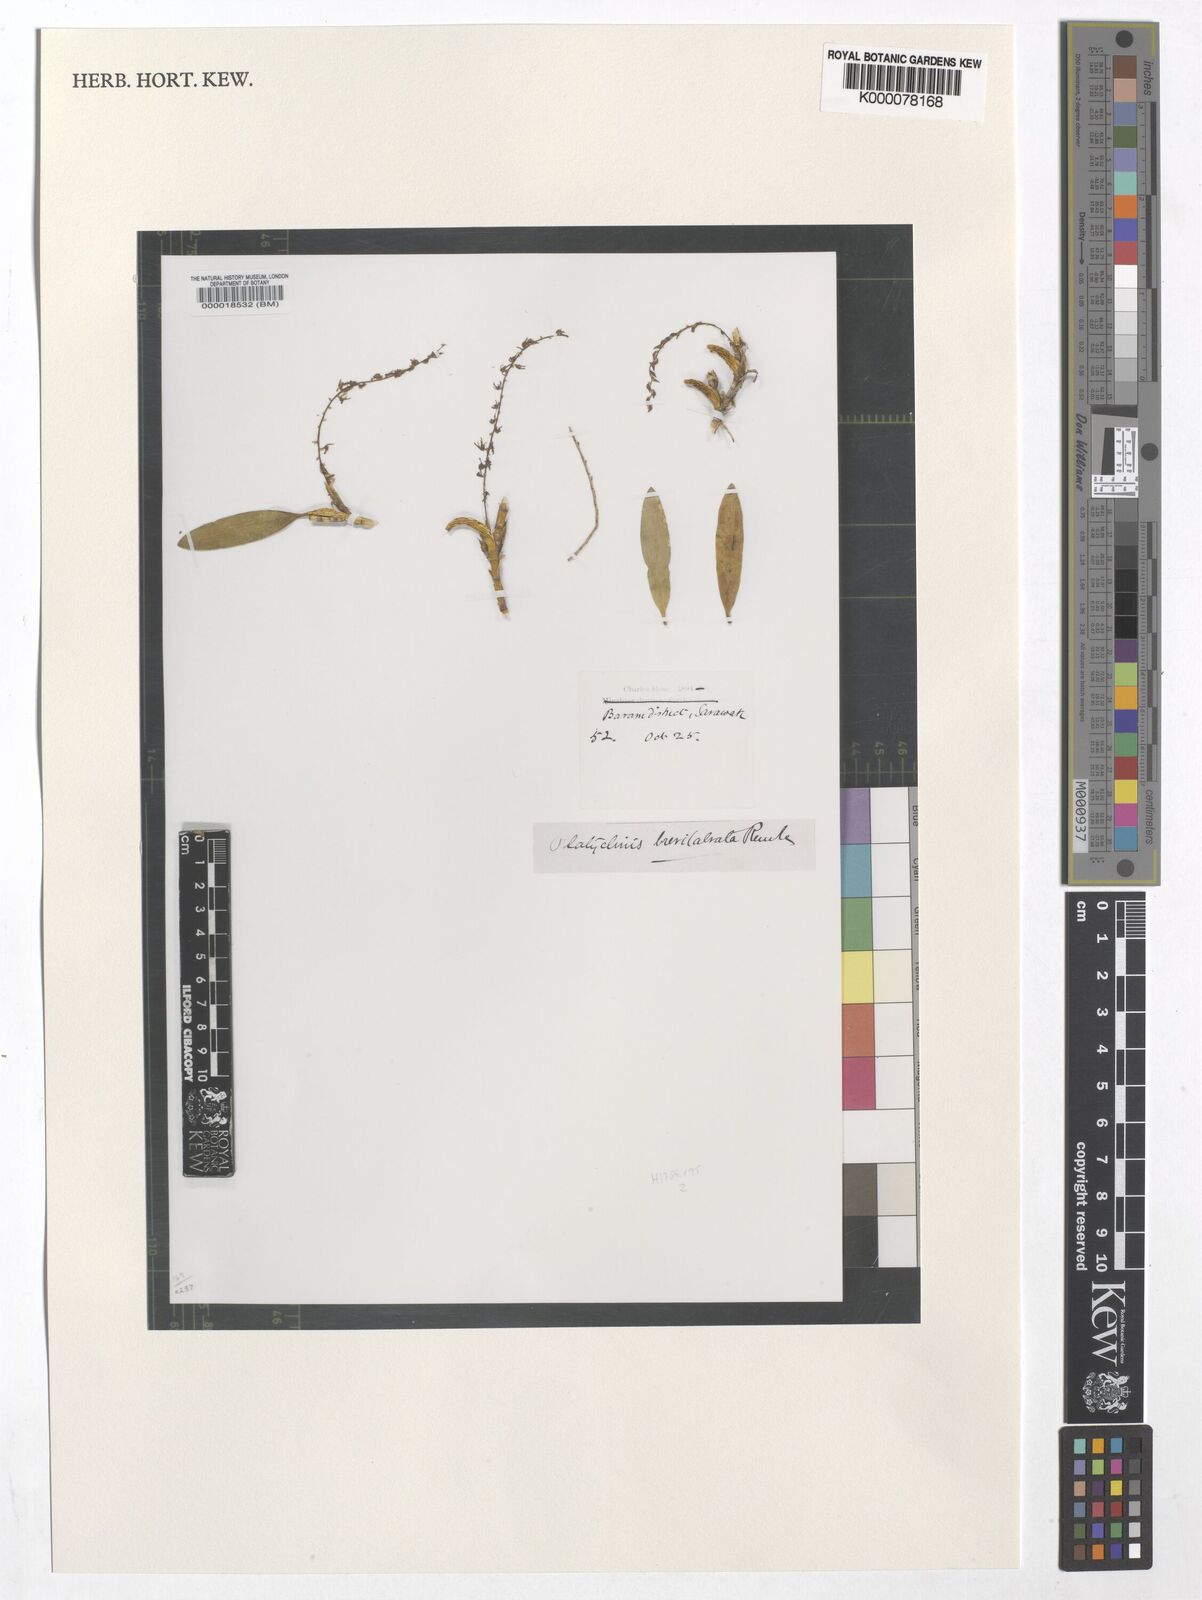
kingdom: Plantae
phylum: Tracheophyta
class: Liliopsida
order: Asparagales
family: Orchidaceae
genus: Coelogyne
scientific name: Coelogyne pallidiflavens
